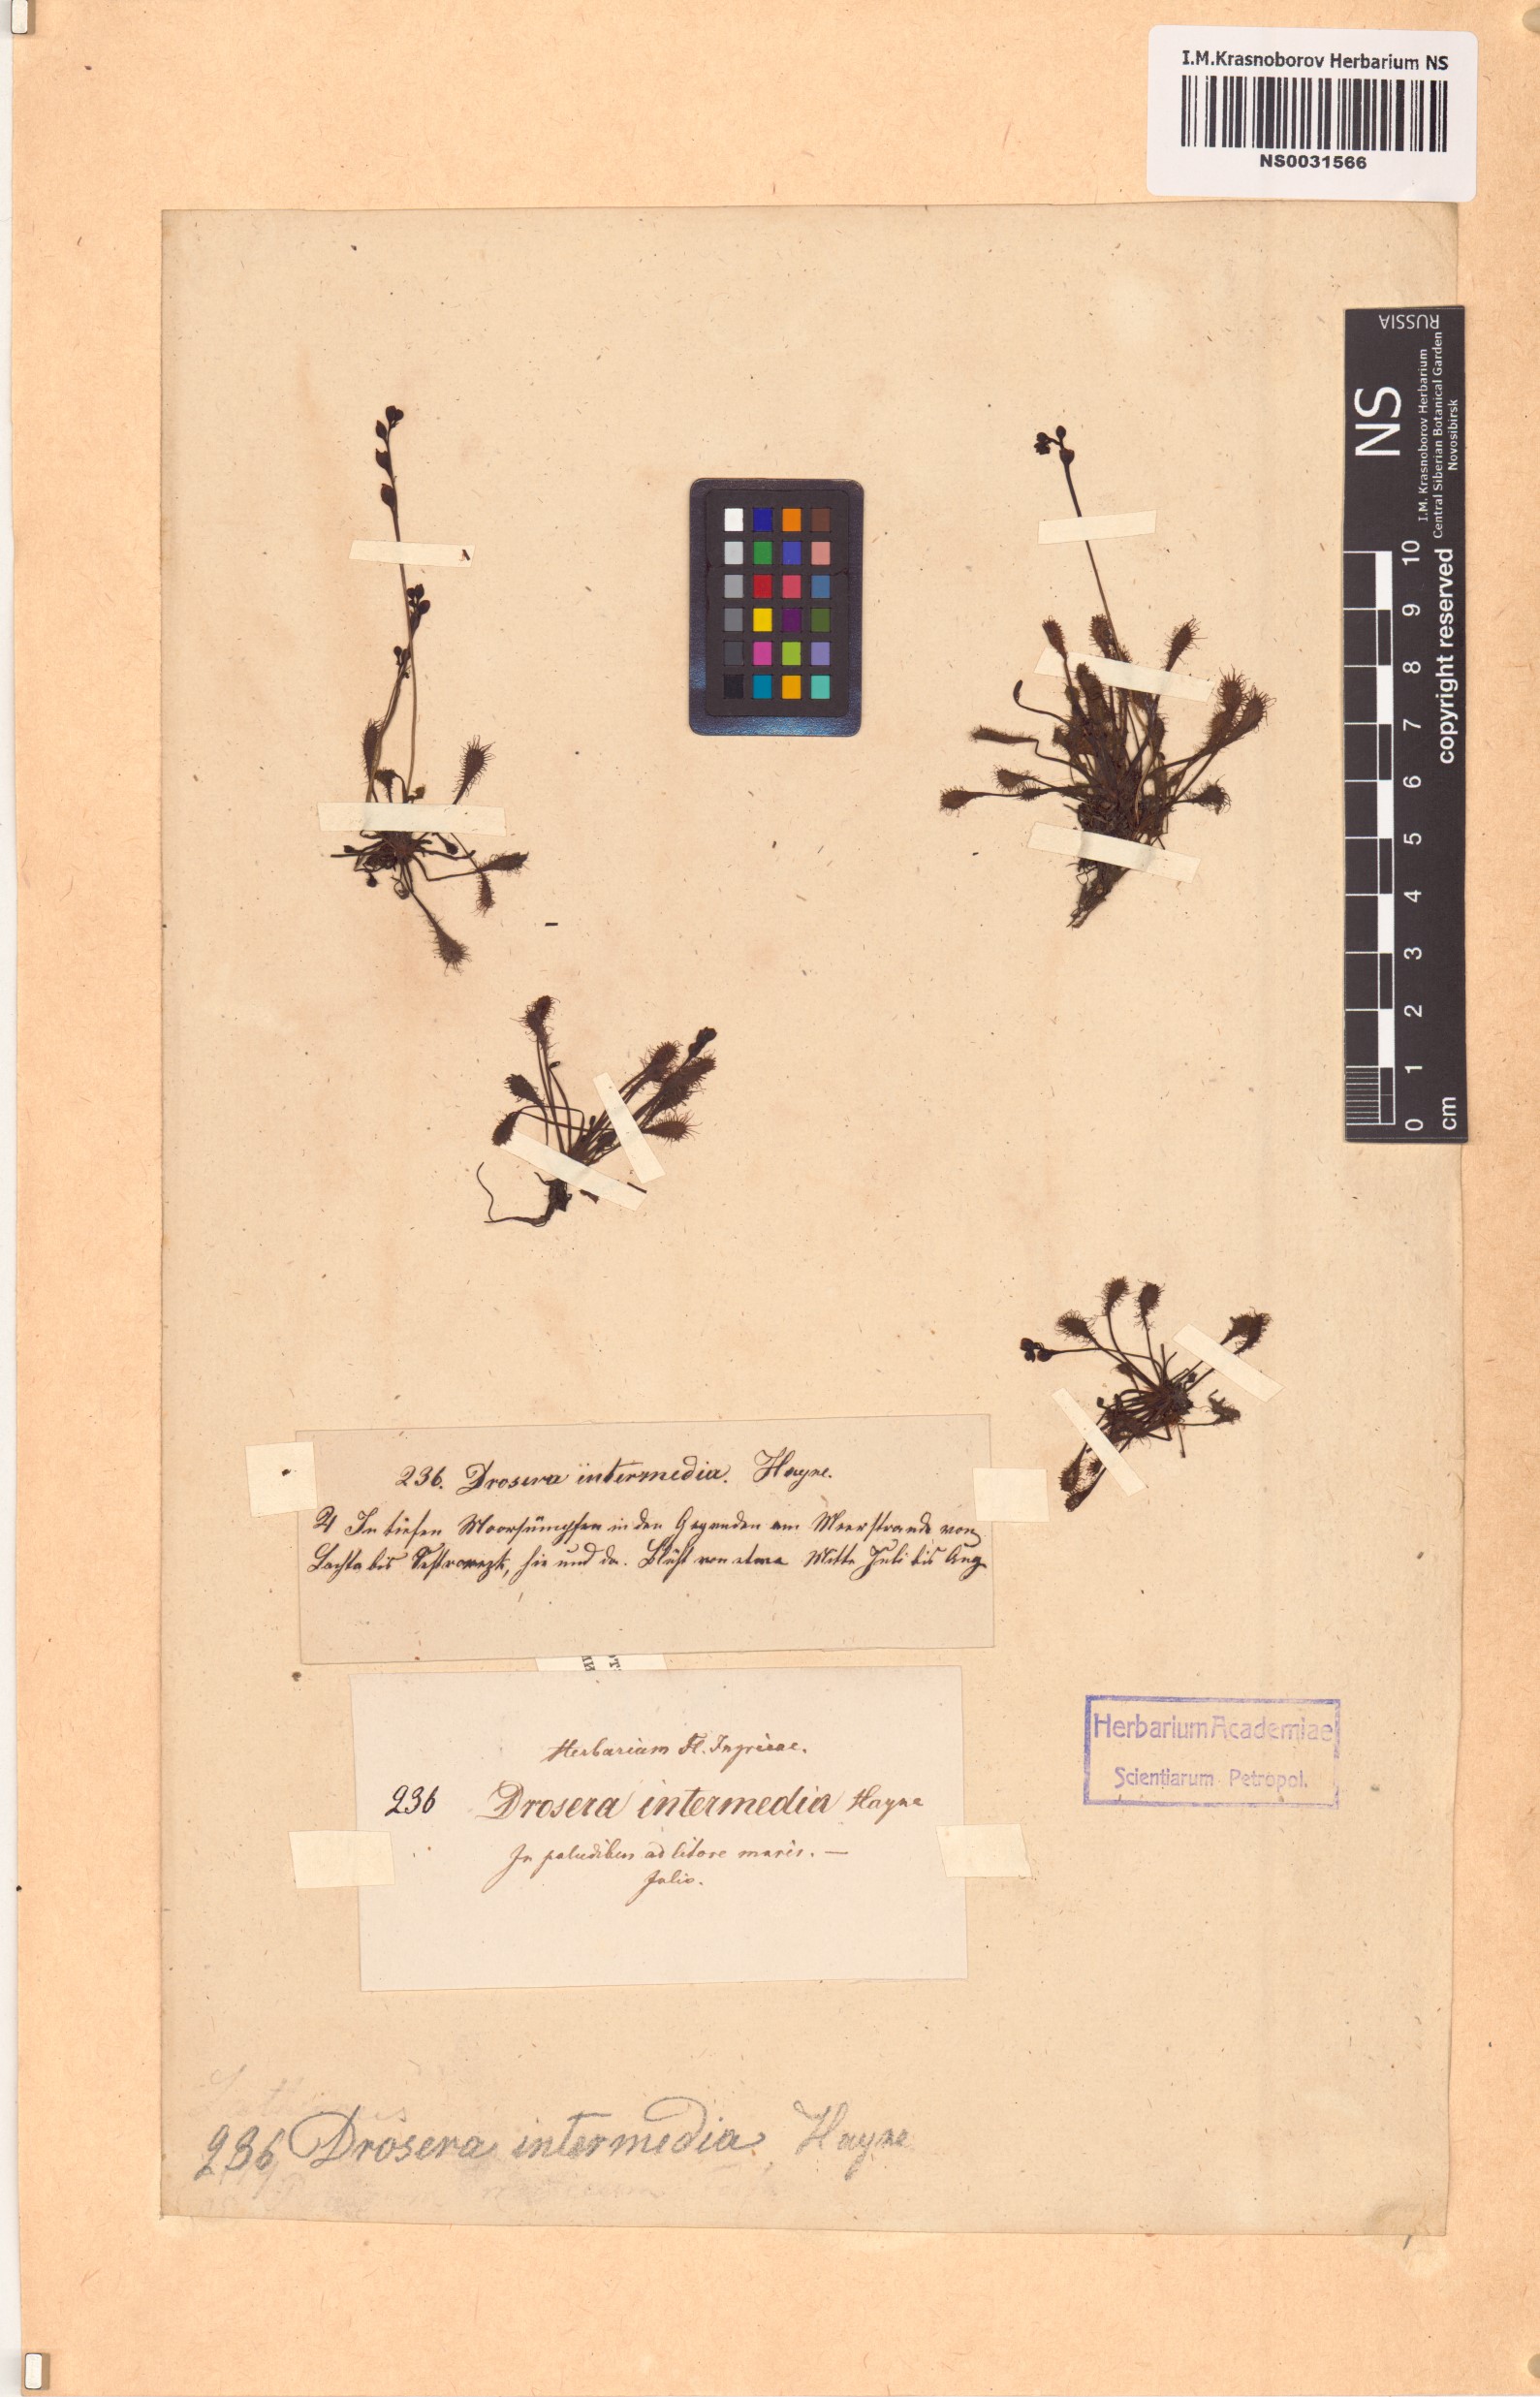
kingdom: Plantae
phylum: Tracheophyta
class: Magnoliopsida
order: Caryophyllales
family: Droseraceae
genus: Drosera
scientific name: Drosera intermedia
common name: Oblong-leaved sundew
